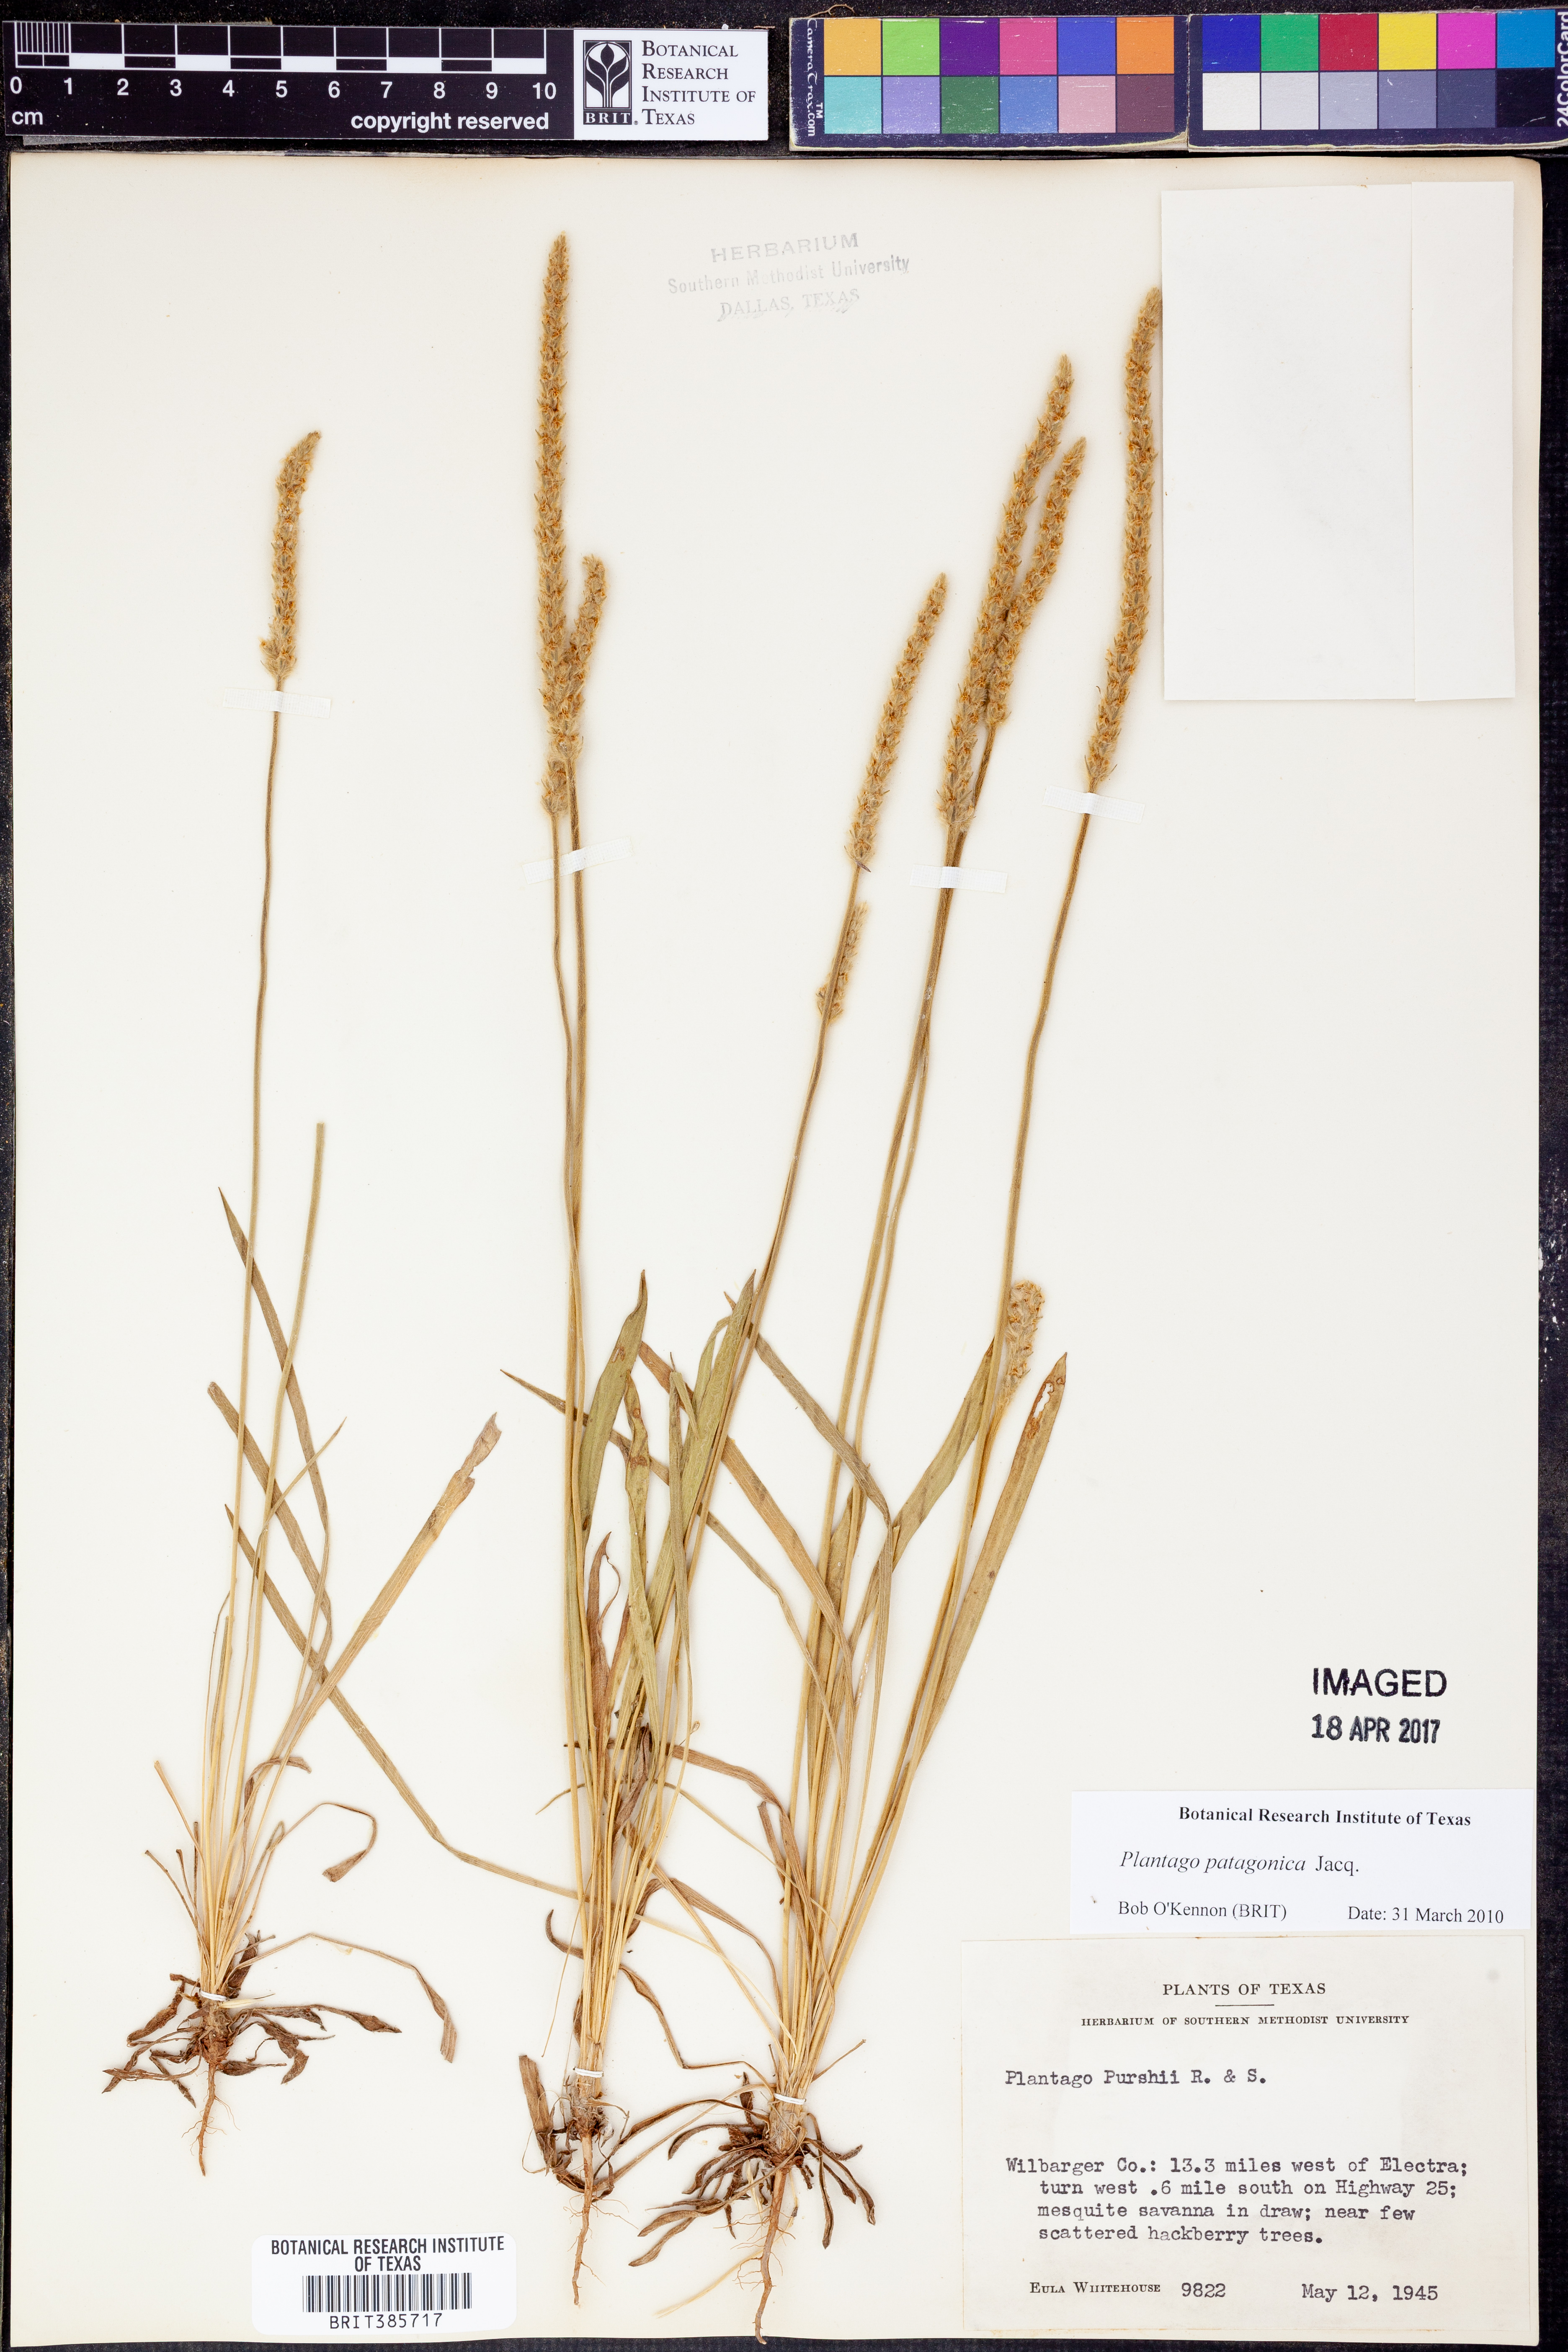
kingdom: Plantae
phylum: Tracheophyta
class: Magnoliopsida
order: Lamiales
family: Plantaginaceae
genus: Plantago
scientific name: Plantago patagonica
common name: Patagonia indian-wheat
